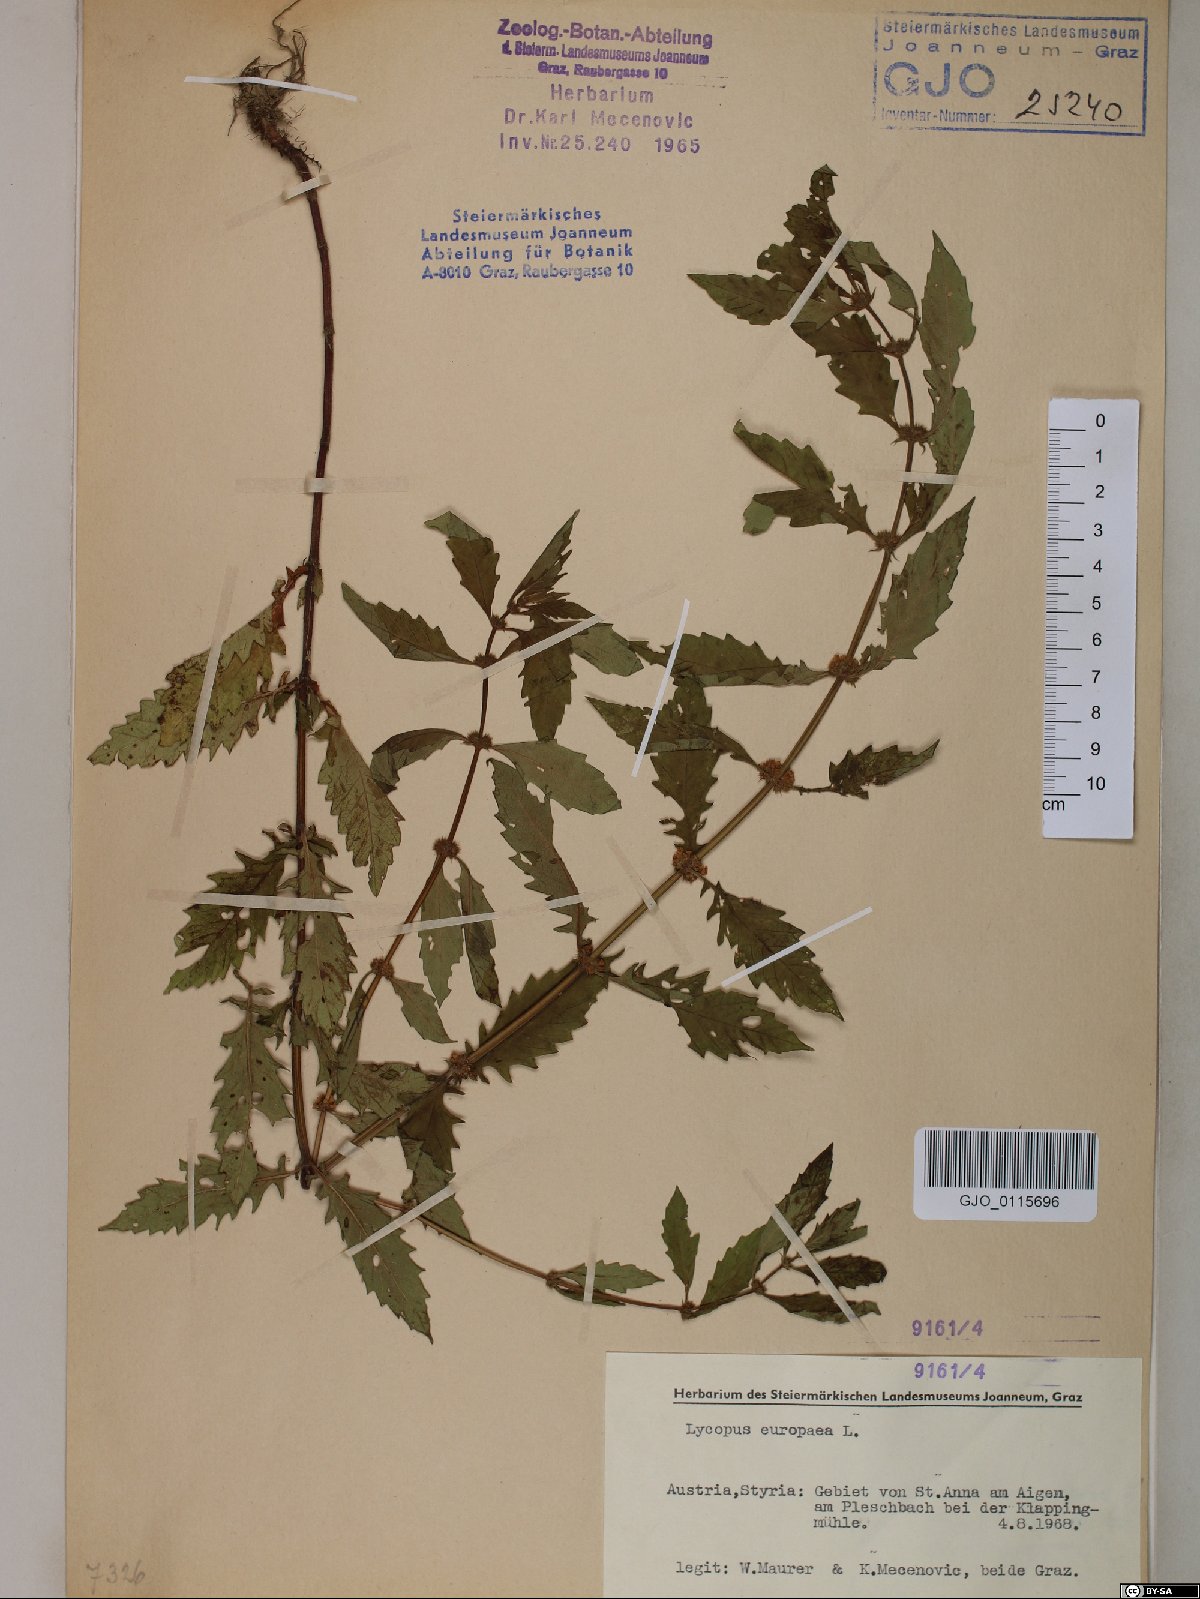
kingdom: Plantae
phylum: Tracheophyta
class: Magnoliopsida
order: Lamiales
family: Lamiaceae
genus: Lycopus
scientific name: Lycopus europaeus
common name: European bugleweed
